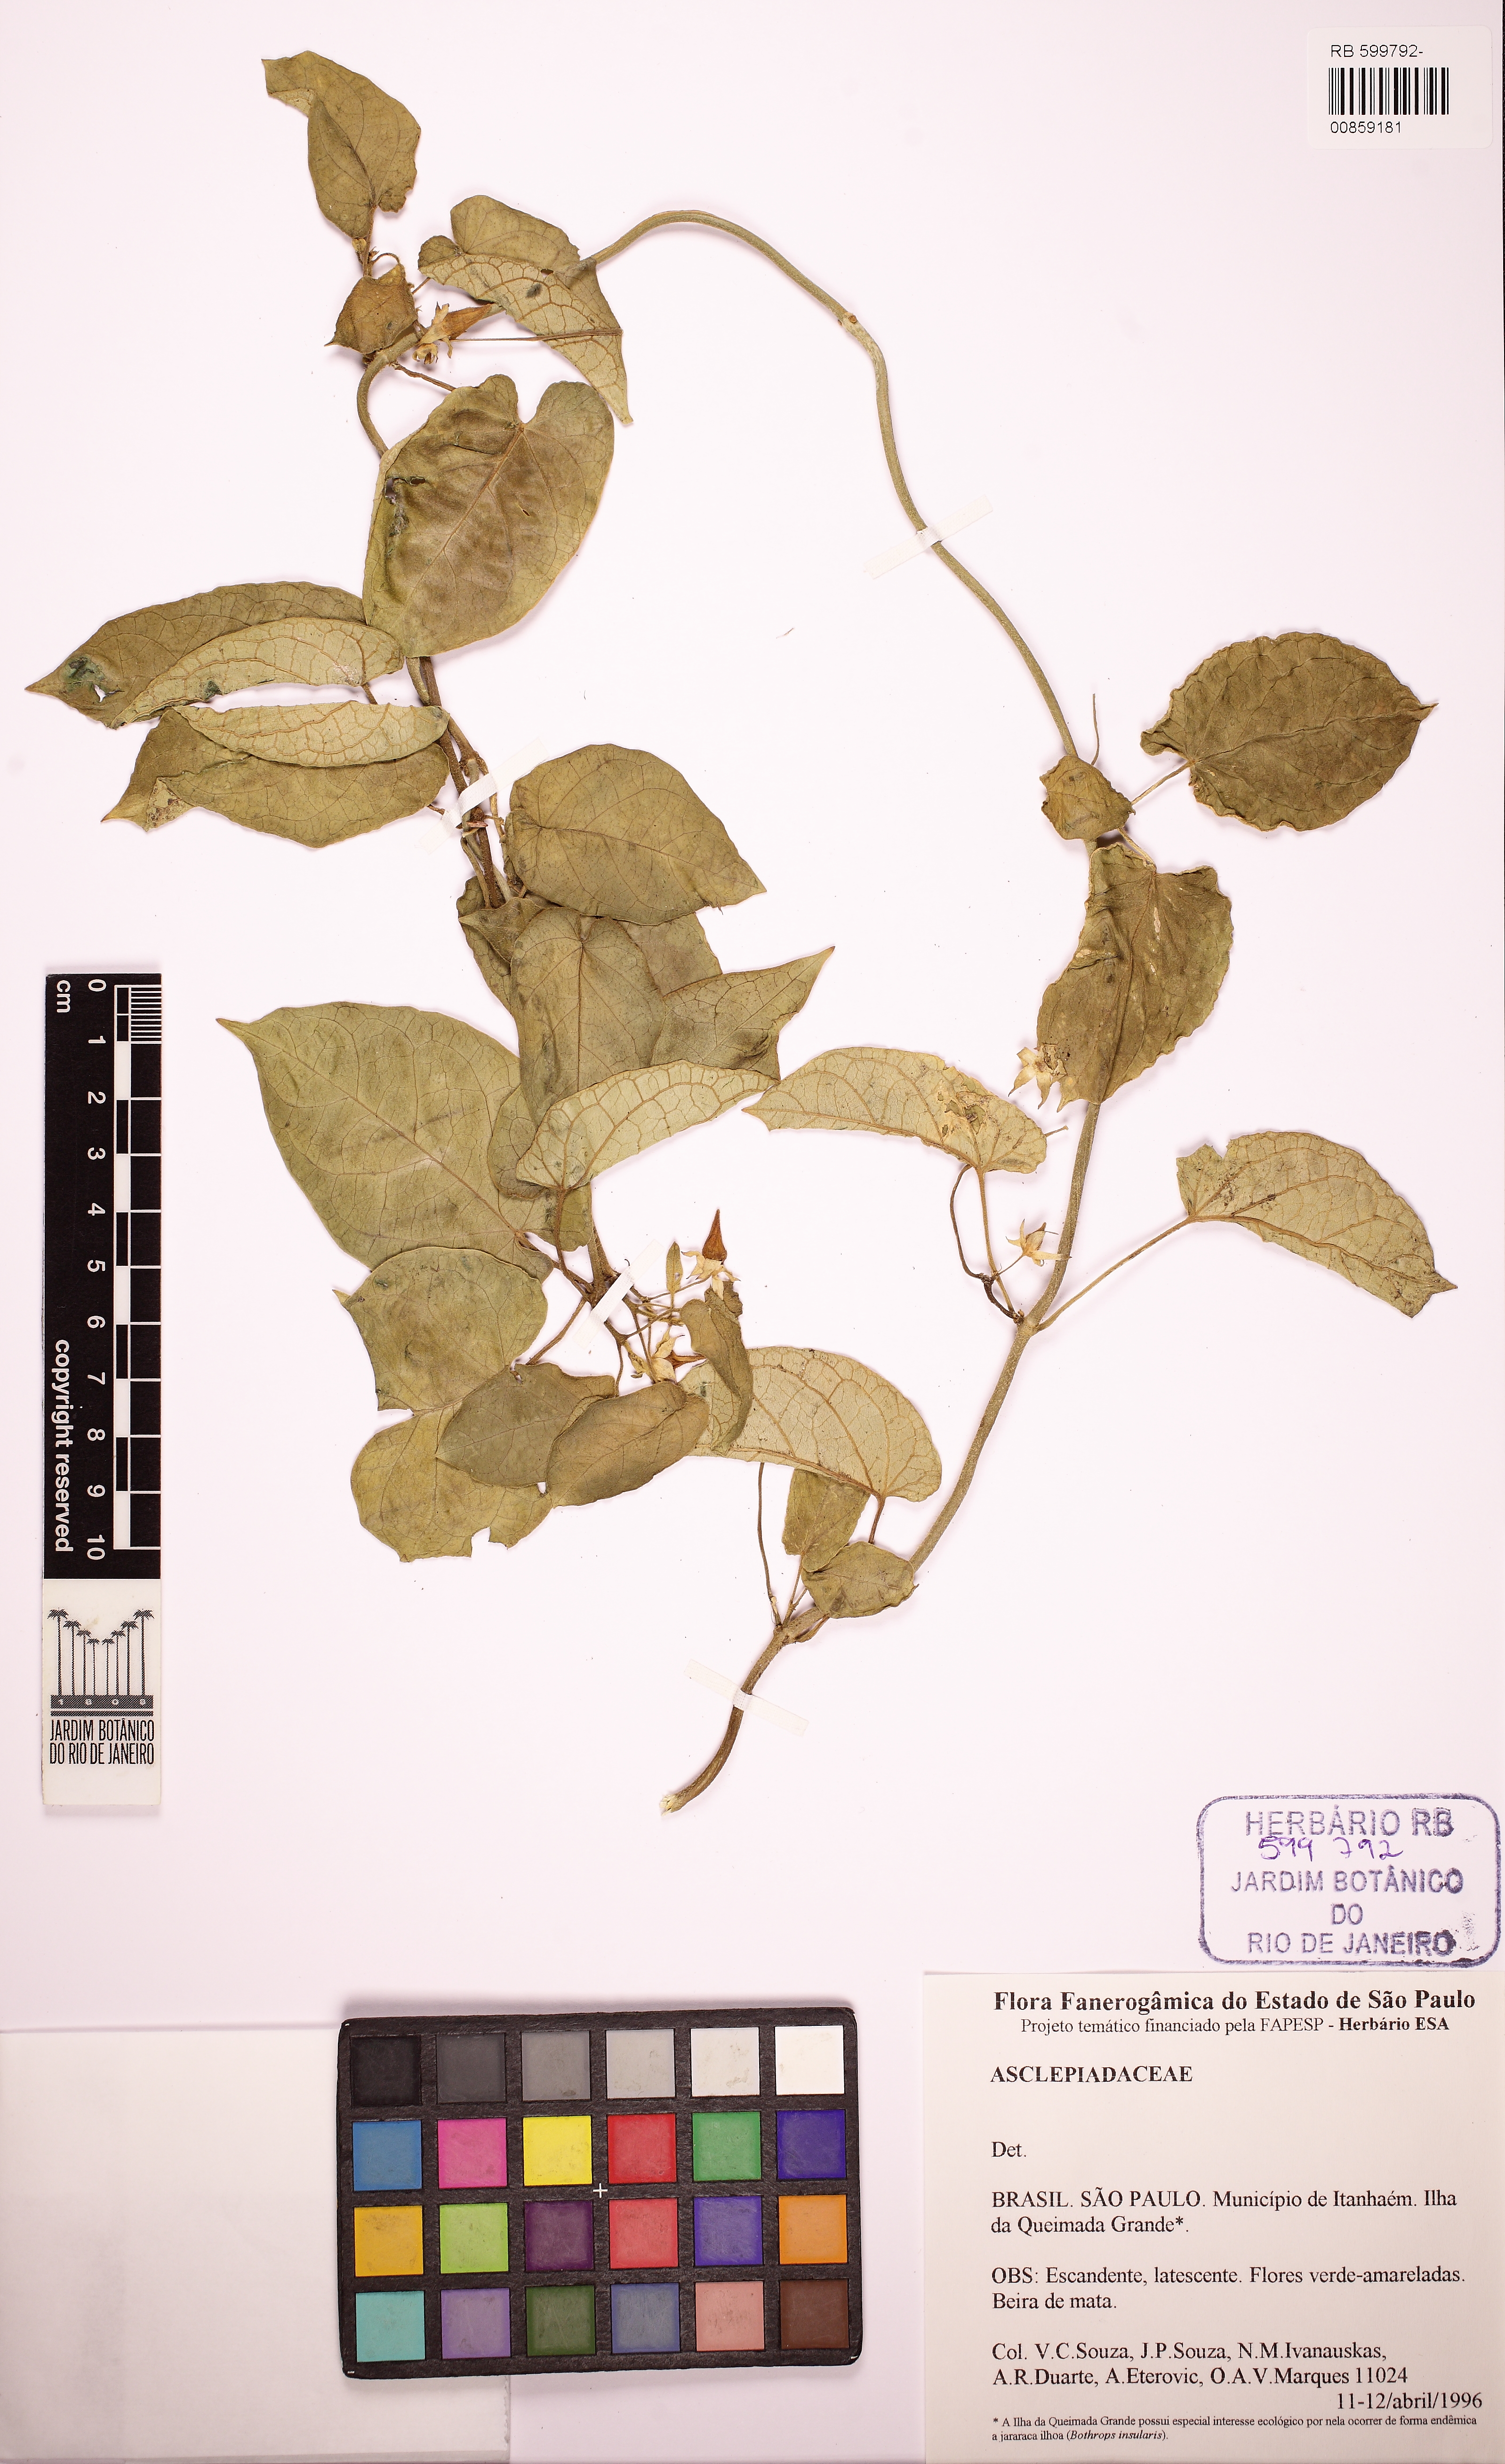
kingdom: Plantae
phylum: Tracheophyta
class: Magnoliopsida
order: Gentianales
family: Apocynaceae
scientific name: Apocynaceae
